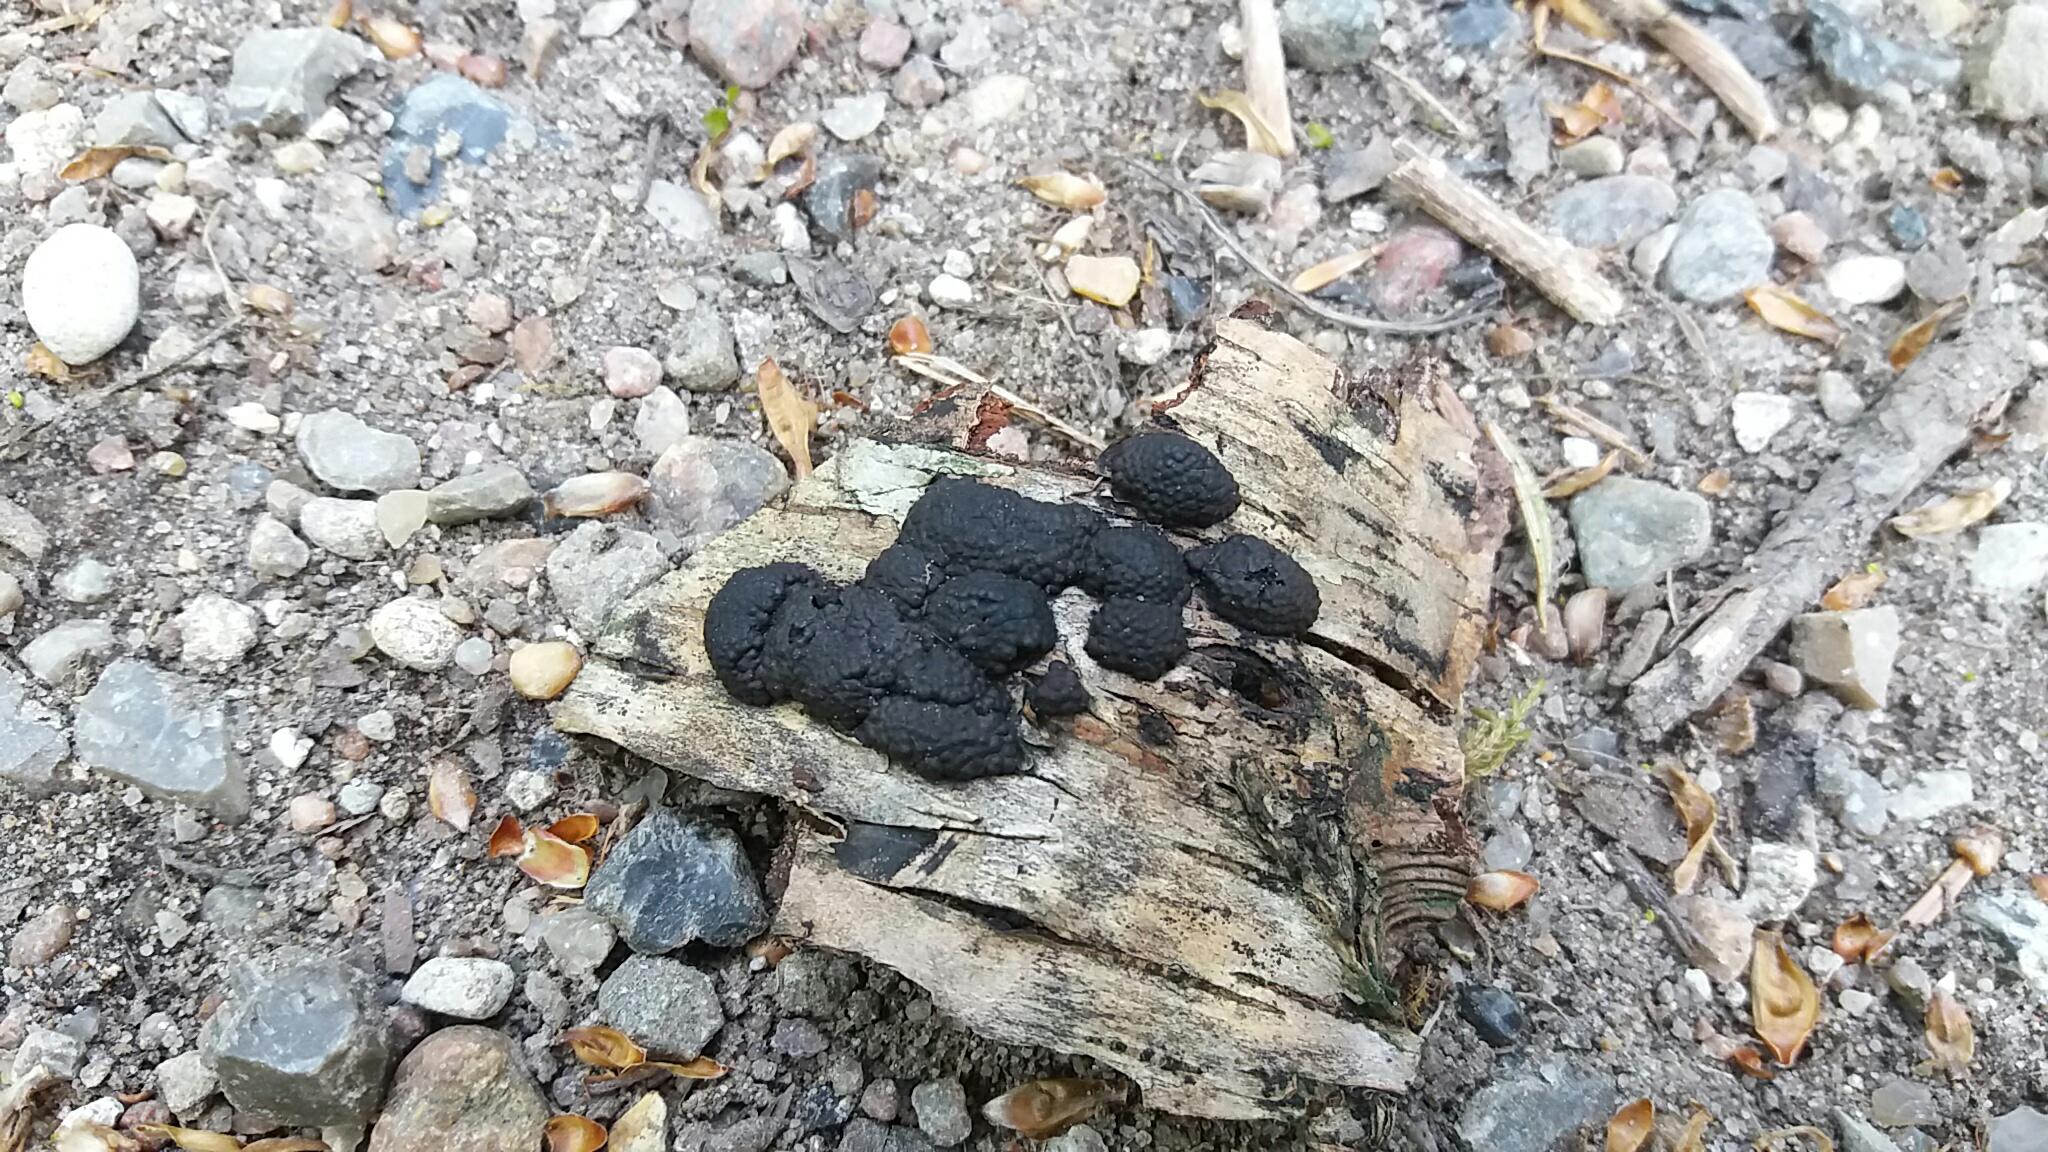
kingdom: Fungi
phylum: Ascomycota
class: Sordariomycetes
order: Xylariales
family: Hypoxylaceae
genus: Jackrogersella
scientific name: Jackrogersella multiformis
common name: foranderlig kulbær
